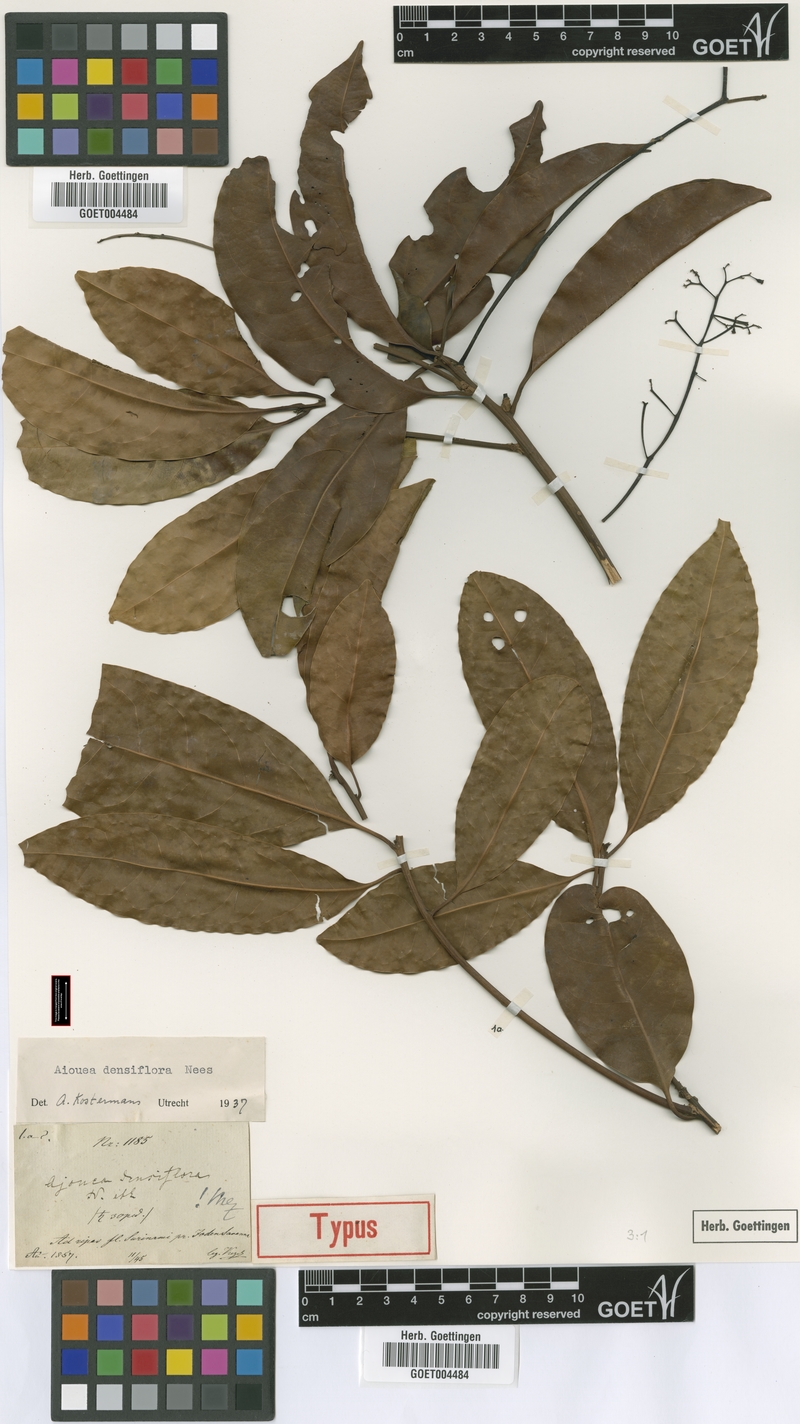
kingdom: Plantae
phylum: Tracheophyta
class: Magnoliopsida
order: Laurales
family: Lauraceae
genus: Aiouea
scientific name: Aiouea laevis
